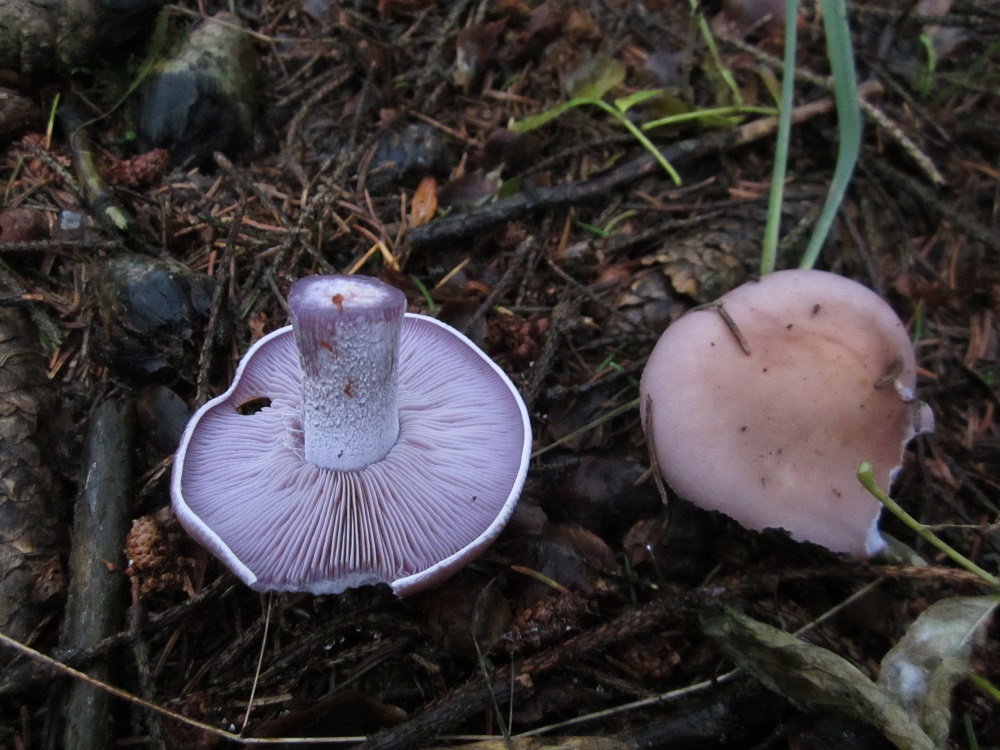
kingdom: Fungi
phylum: Basidiomycota
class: Agaricomycetes
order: Agaricales
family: Tricholomataceae
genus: Lepista
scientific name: Lepista nuda
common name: violet hekseringshat
